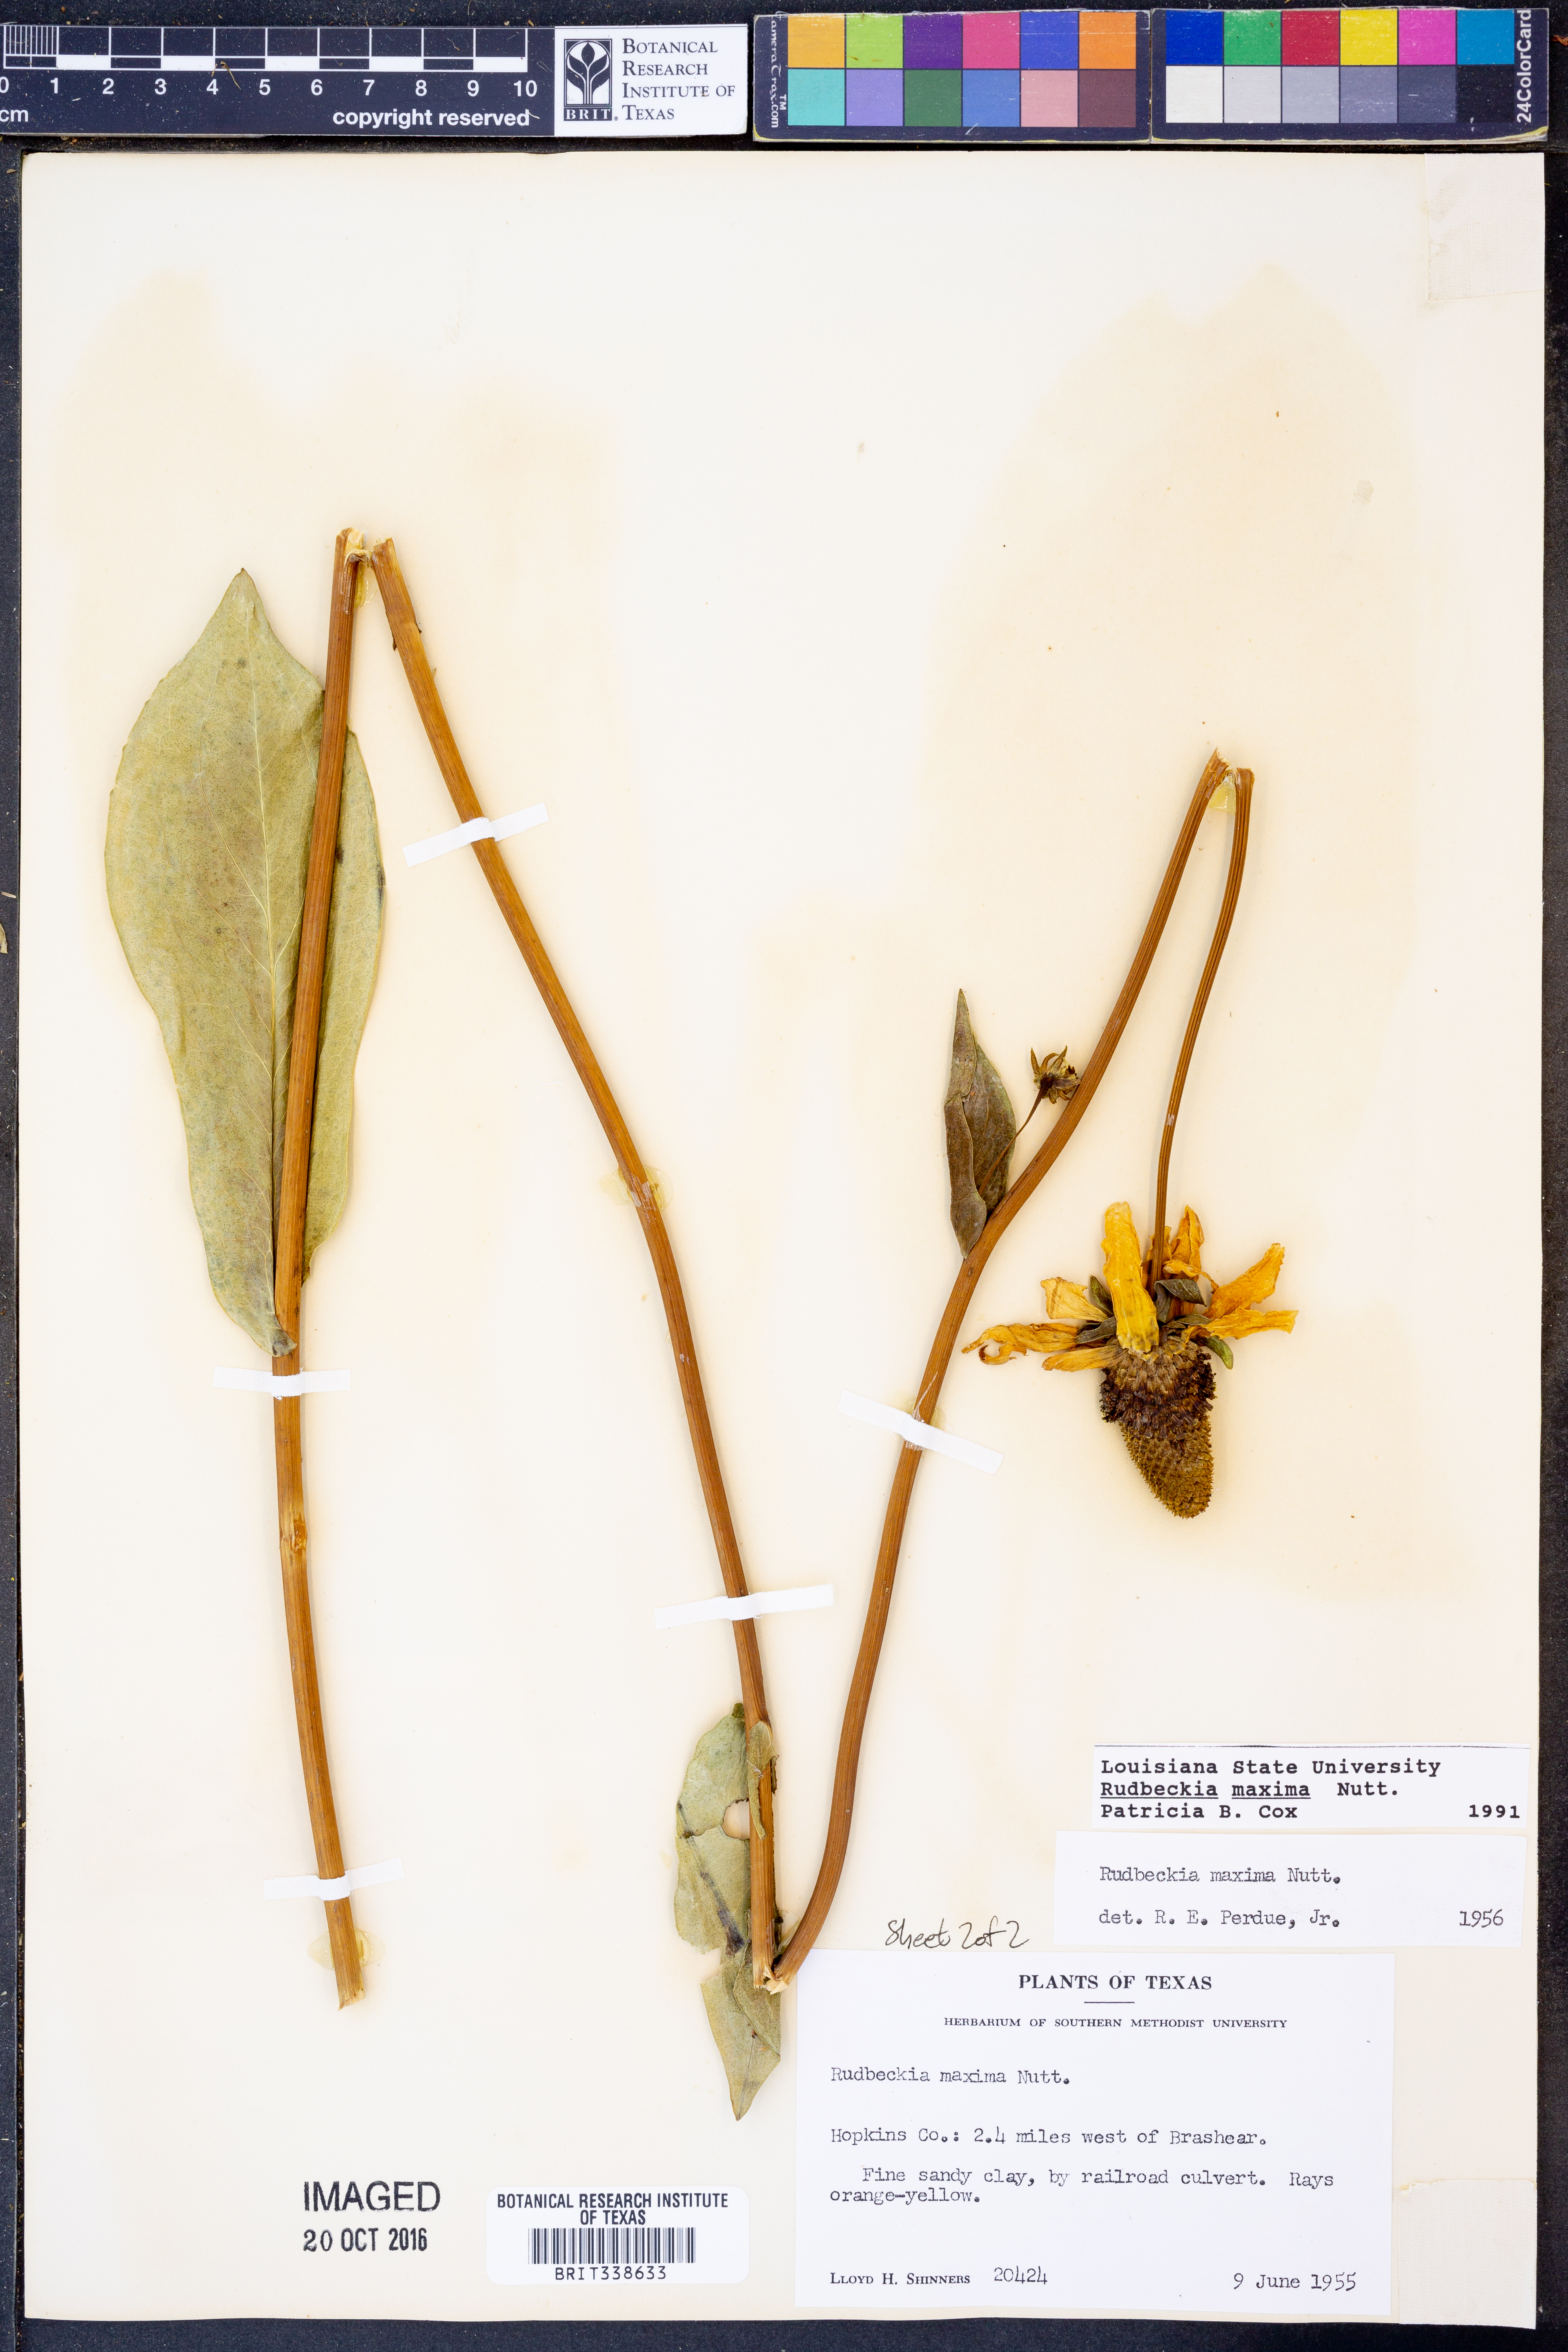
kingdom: Plantae
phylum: Tracheophyta
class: Magnoliopsida
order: Asterales
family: Asteraceae
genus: Rudbeckia
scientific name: Rudbeckia maxima
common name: Cabbage coneflower
